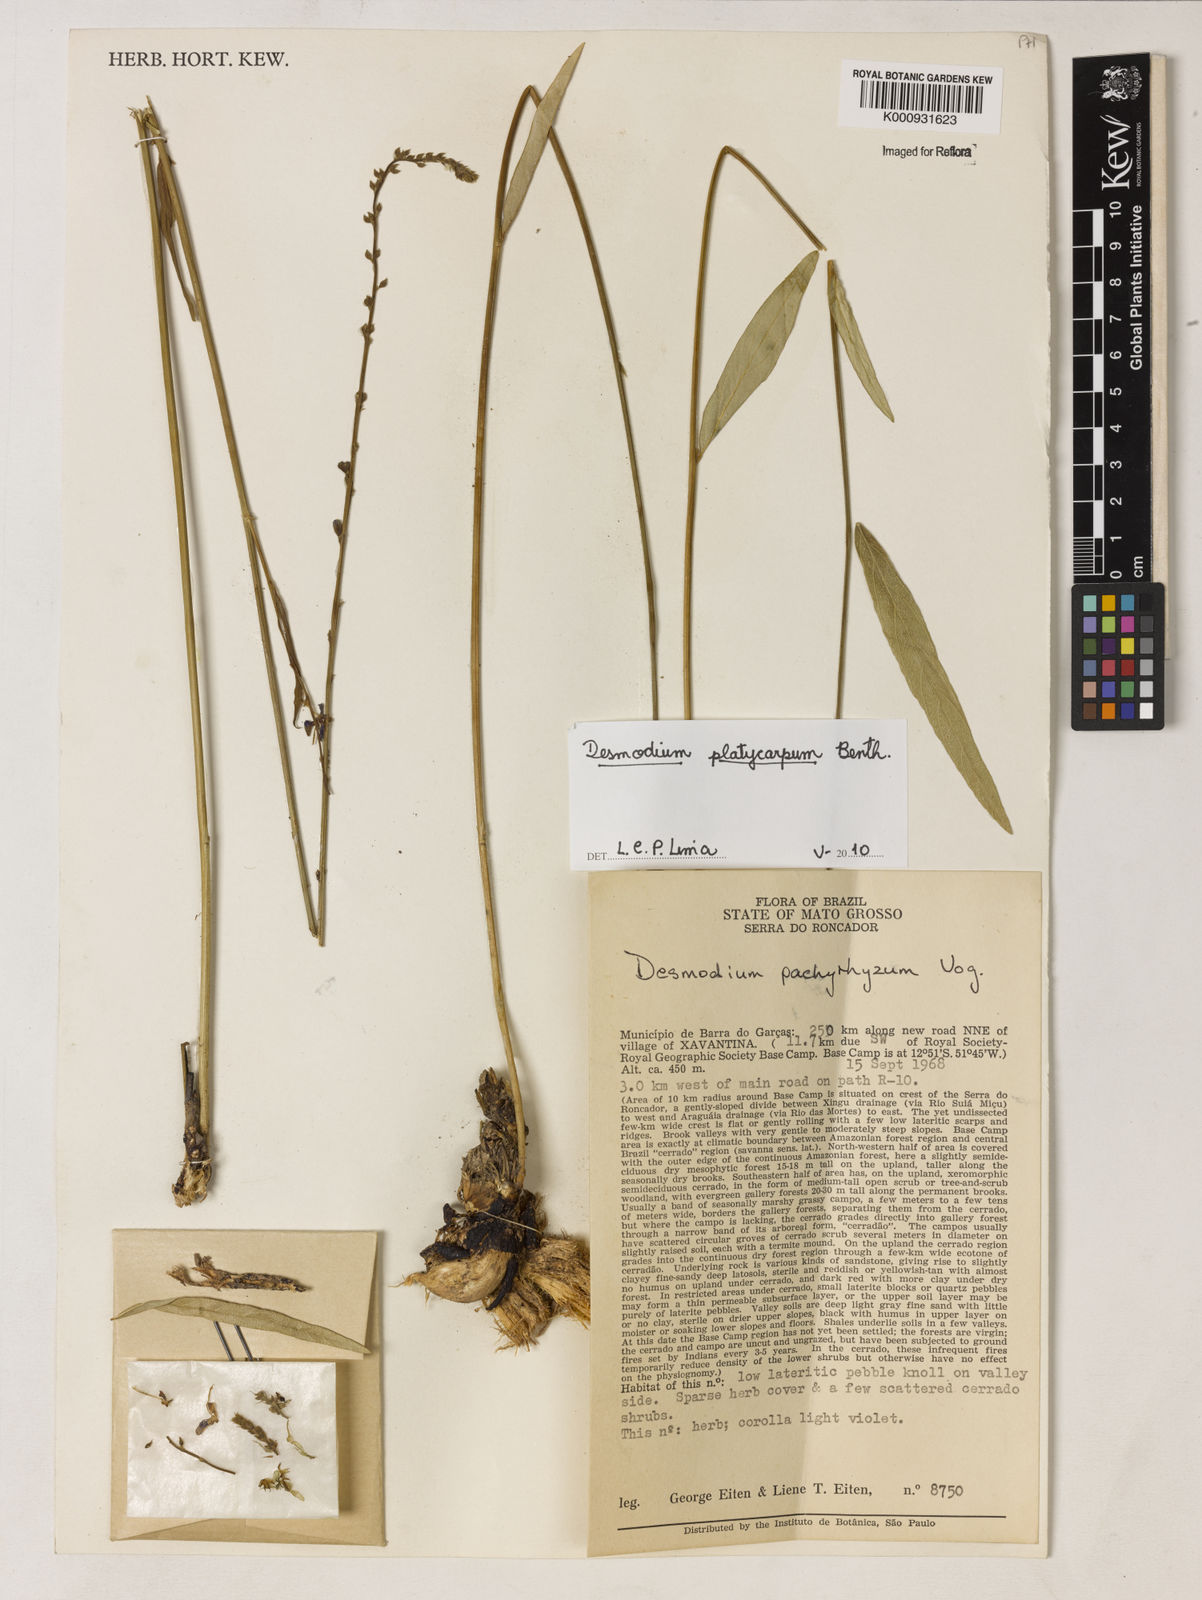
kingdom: Plantae
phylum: Tracheophyta
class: Magnoliopsida
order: Fabales
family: Fabaceae
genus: Desmodium
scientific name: Desmodium platycarpum
